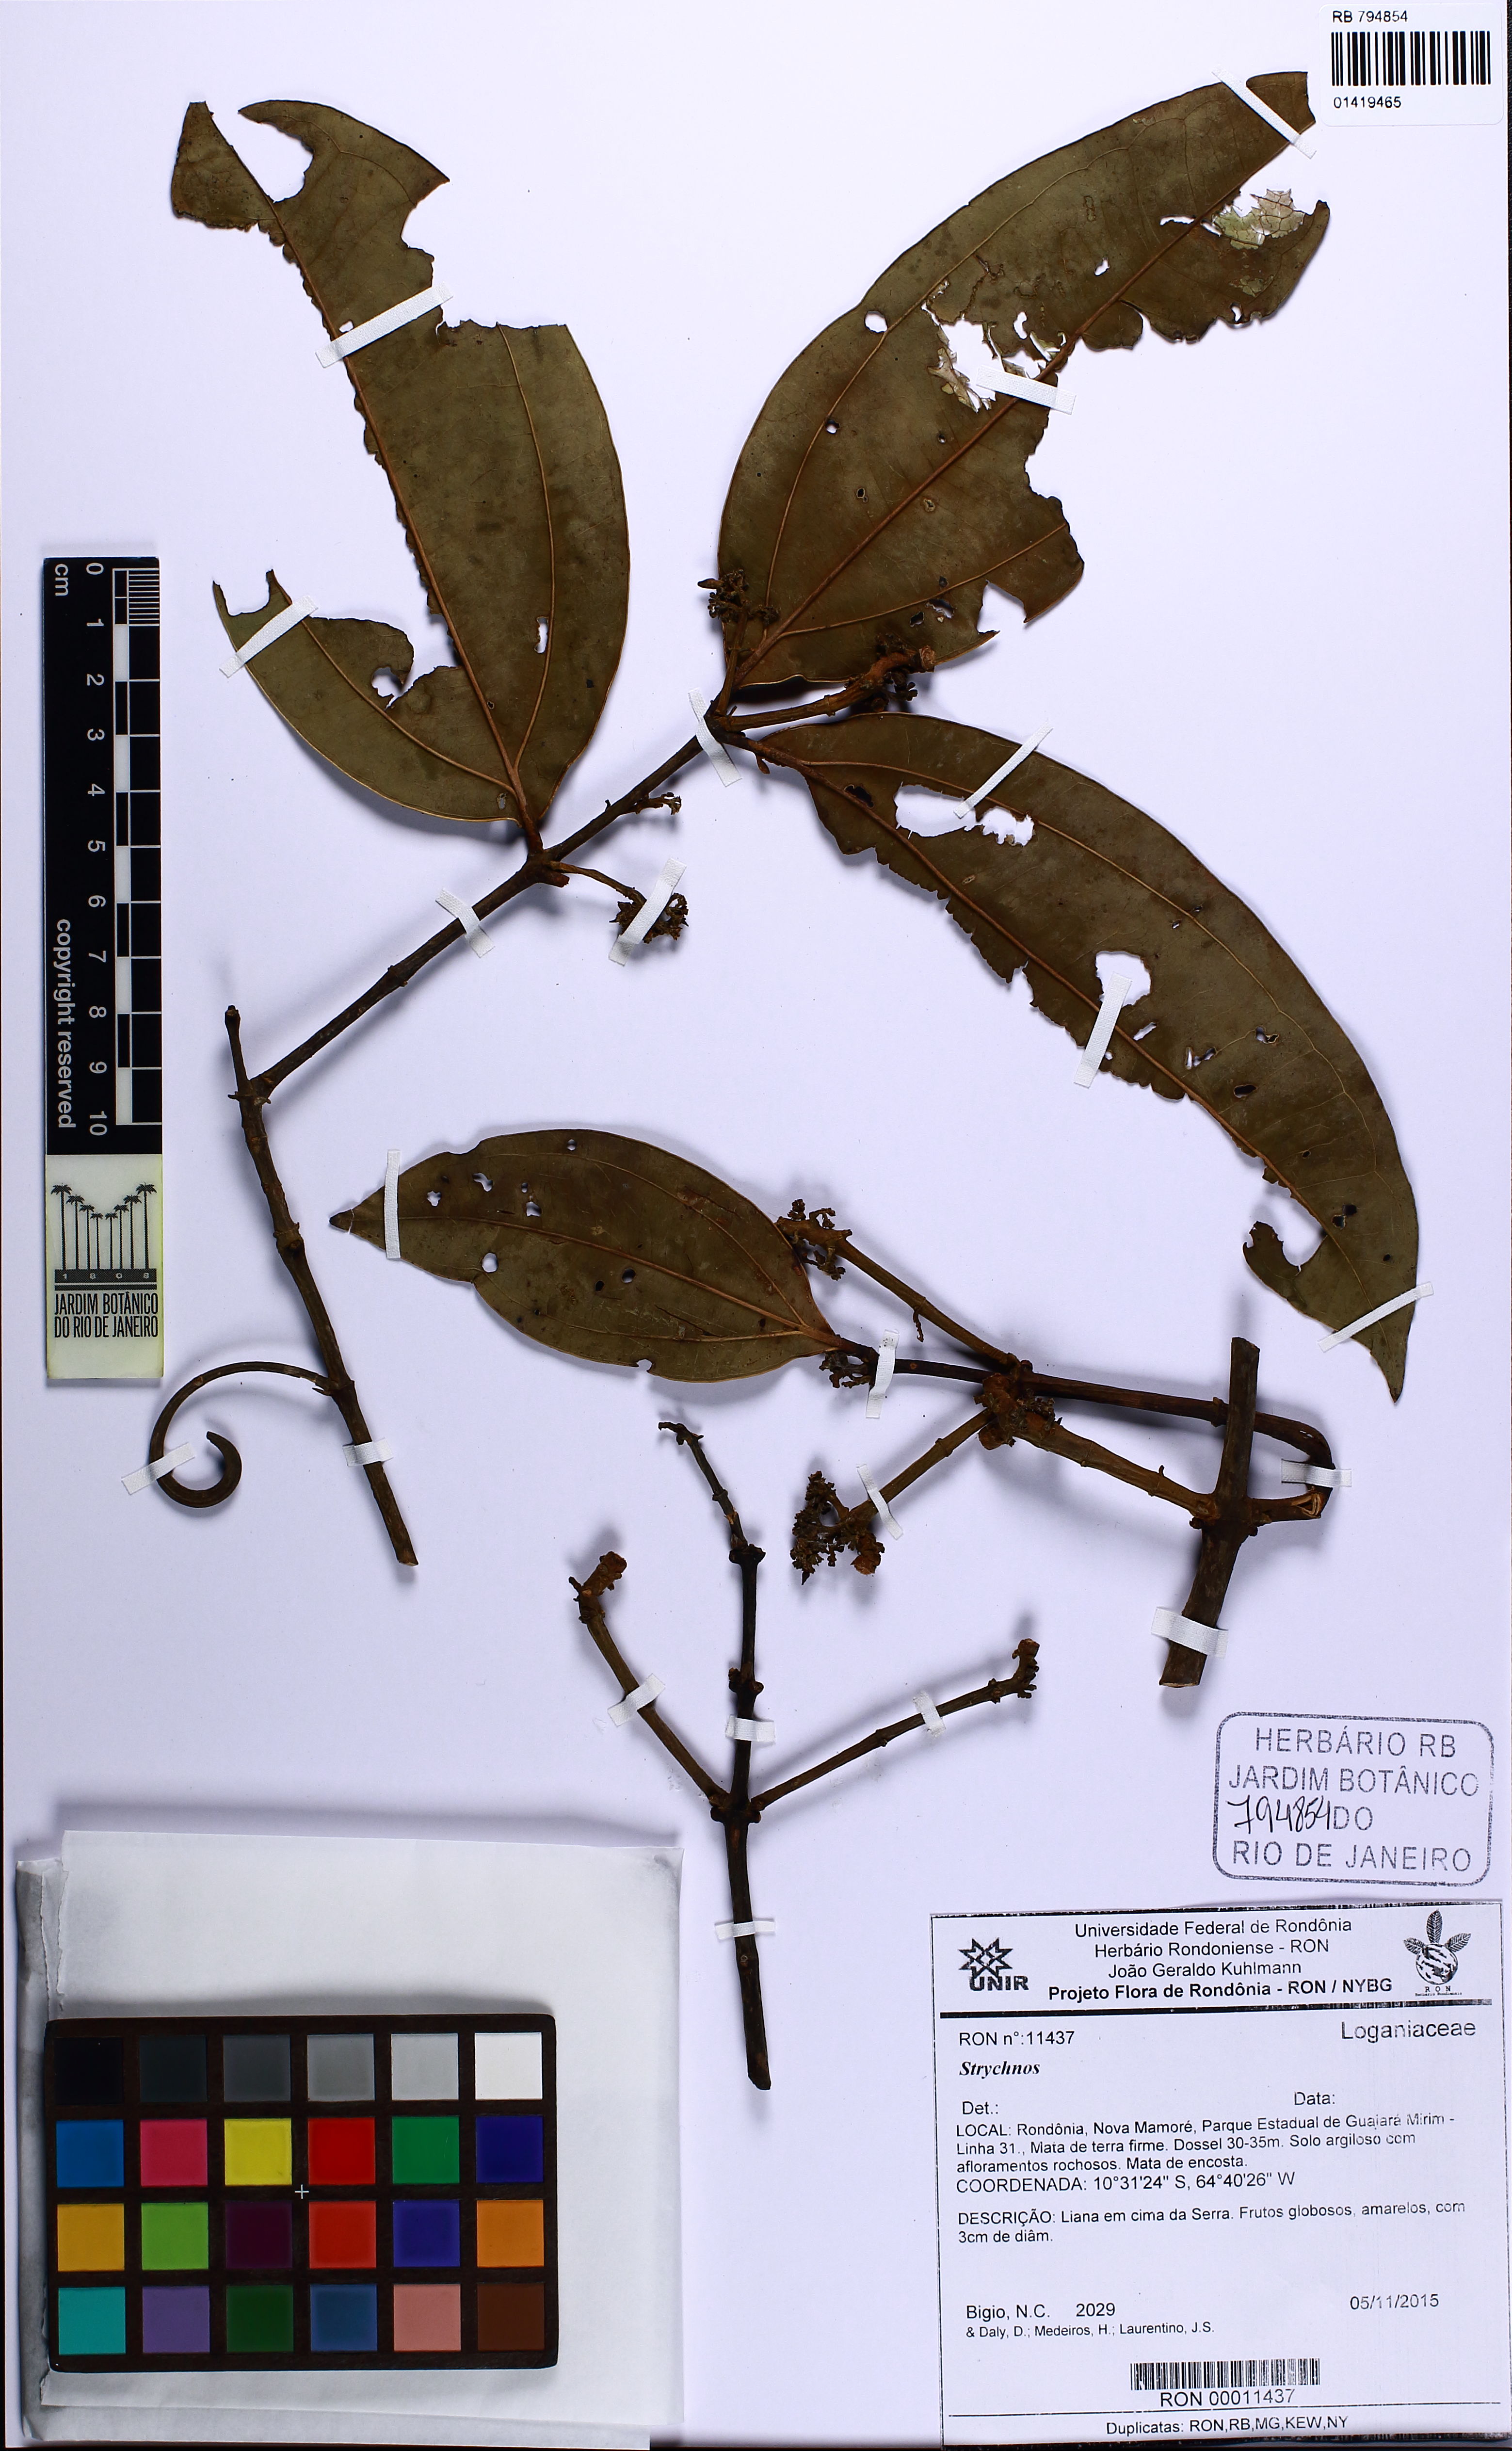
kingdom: Plantae
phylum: Tracheophyta
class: Magnoliopsida
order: Gentianales
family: Loganiaceae
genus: Strychnos
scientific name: Strychnos araguaensis
